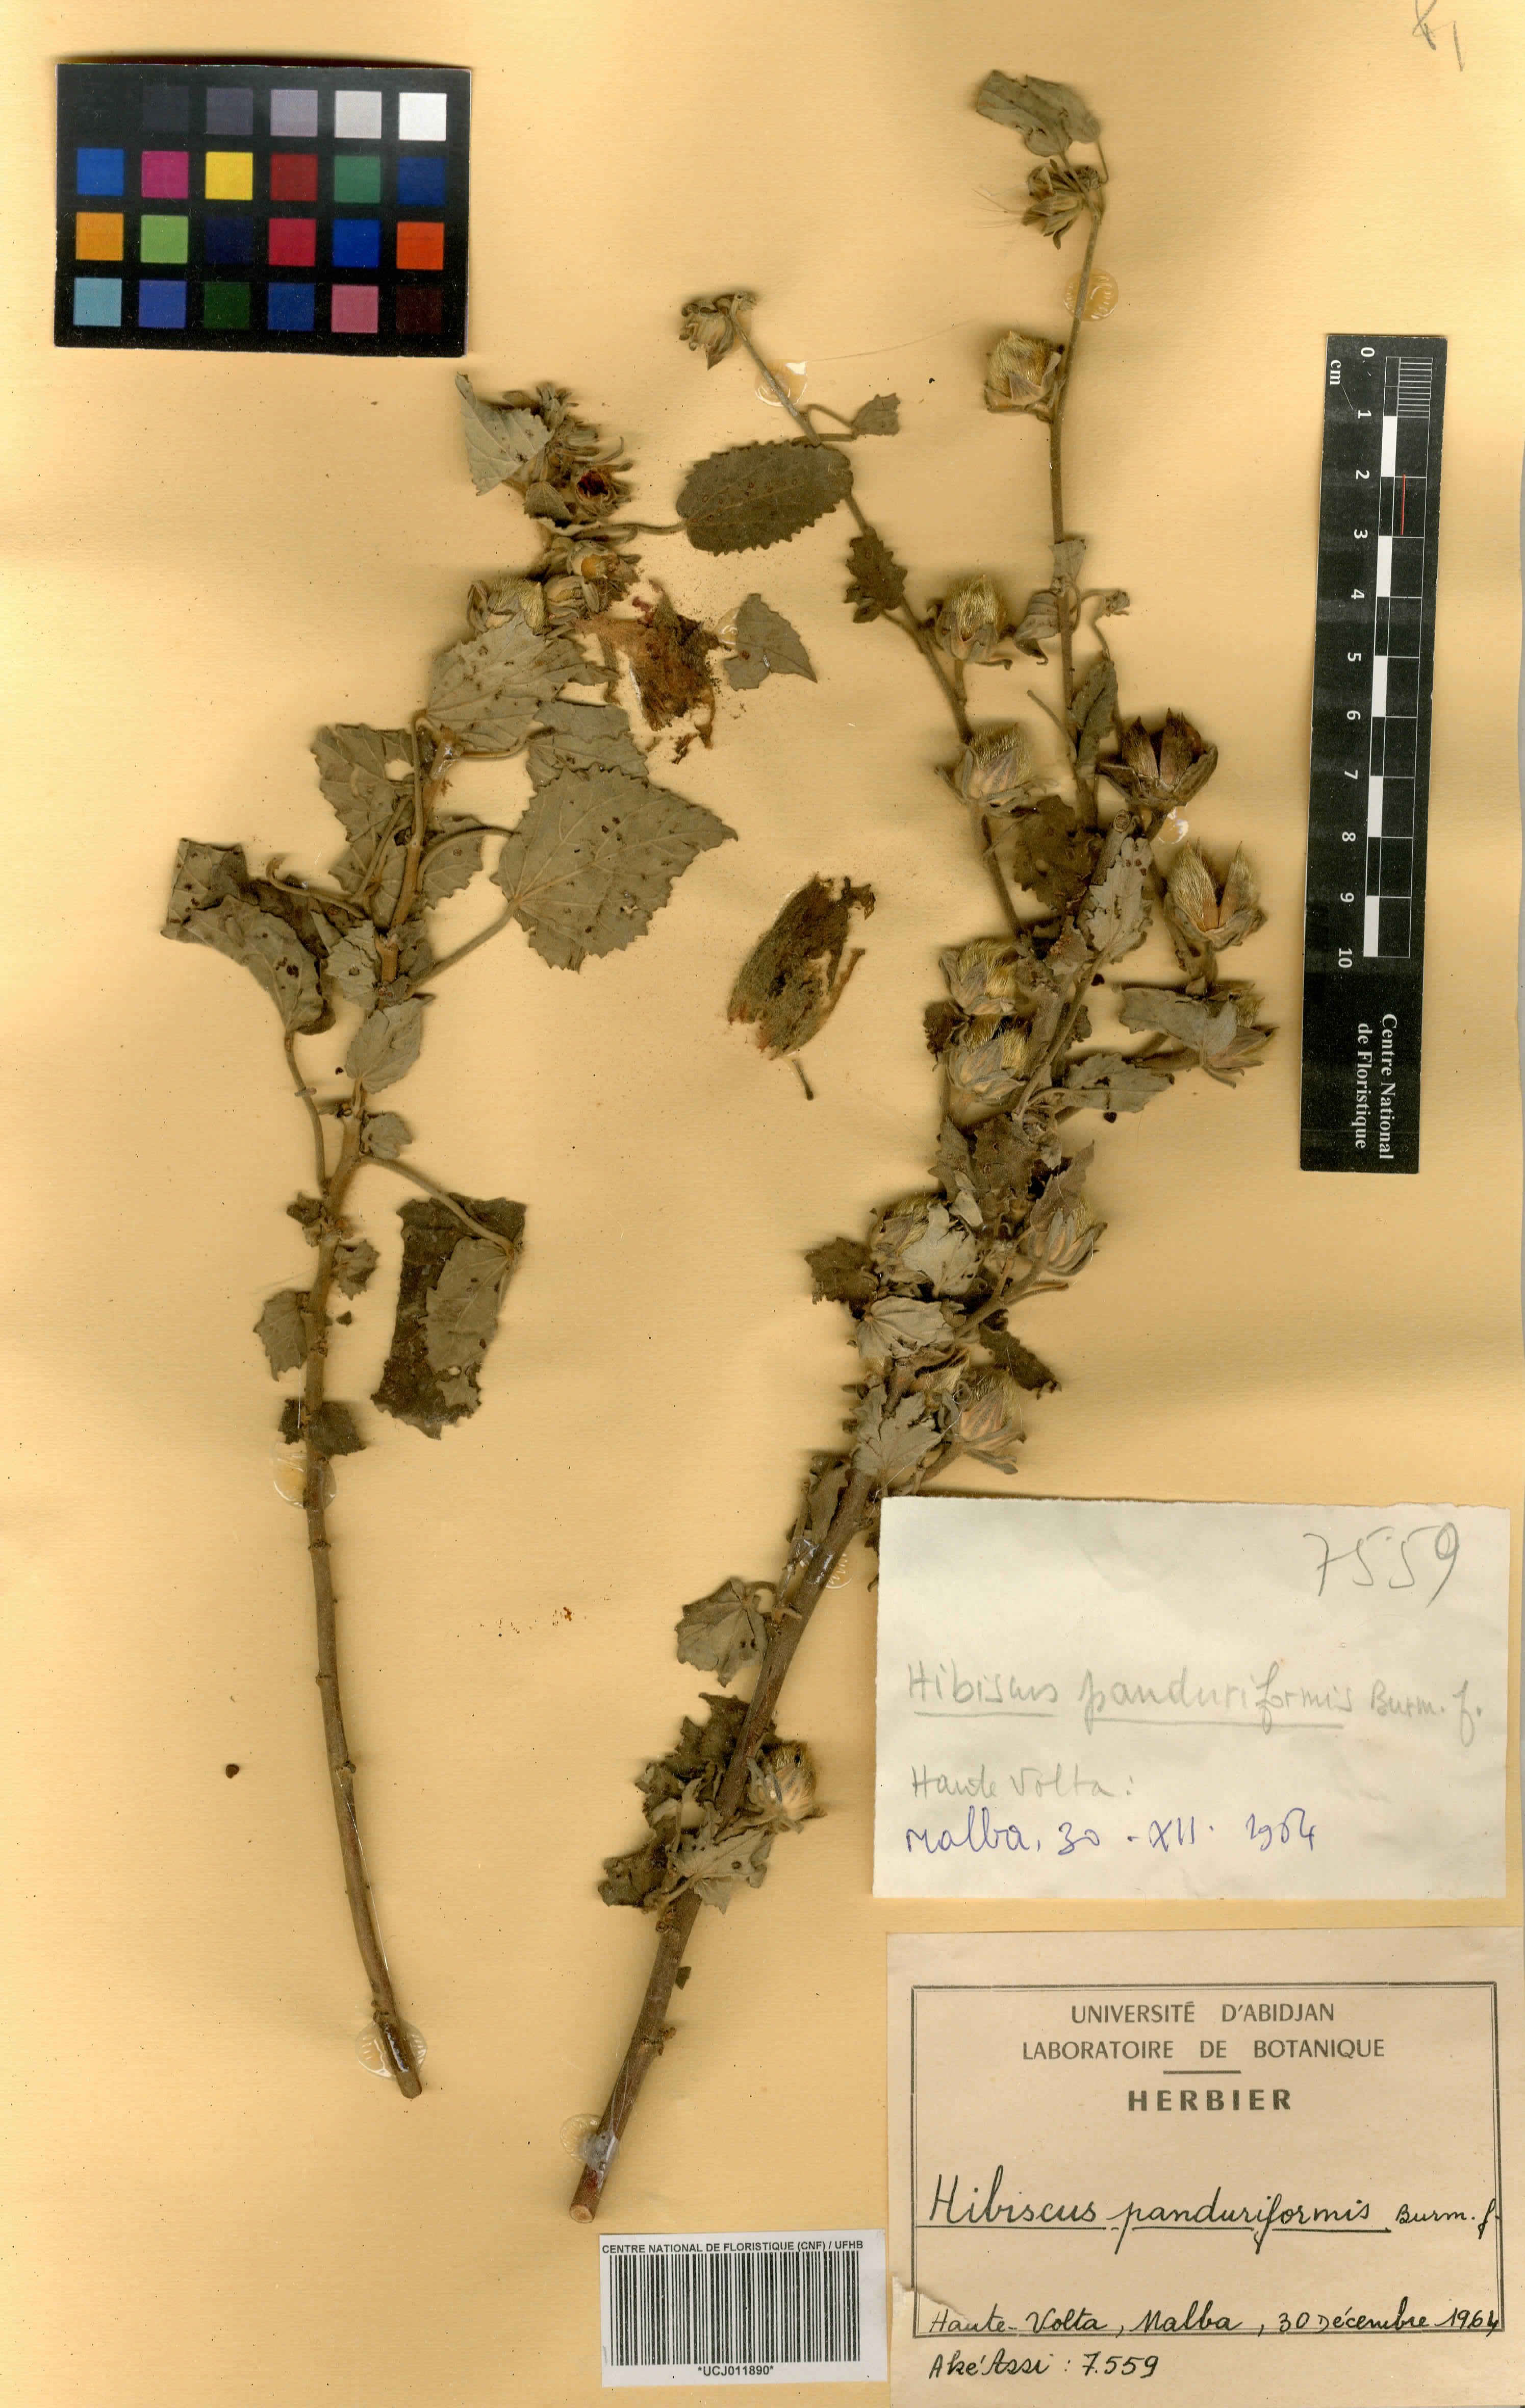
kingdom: Plantae
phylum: Tracheophyta
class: Magnoliopsida
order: Malvales
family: Malvaceae
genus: Hibiscus
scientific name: Hibiscus panduriformis
